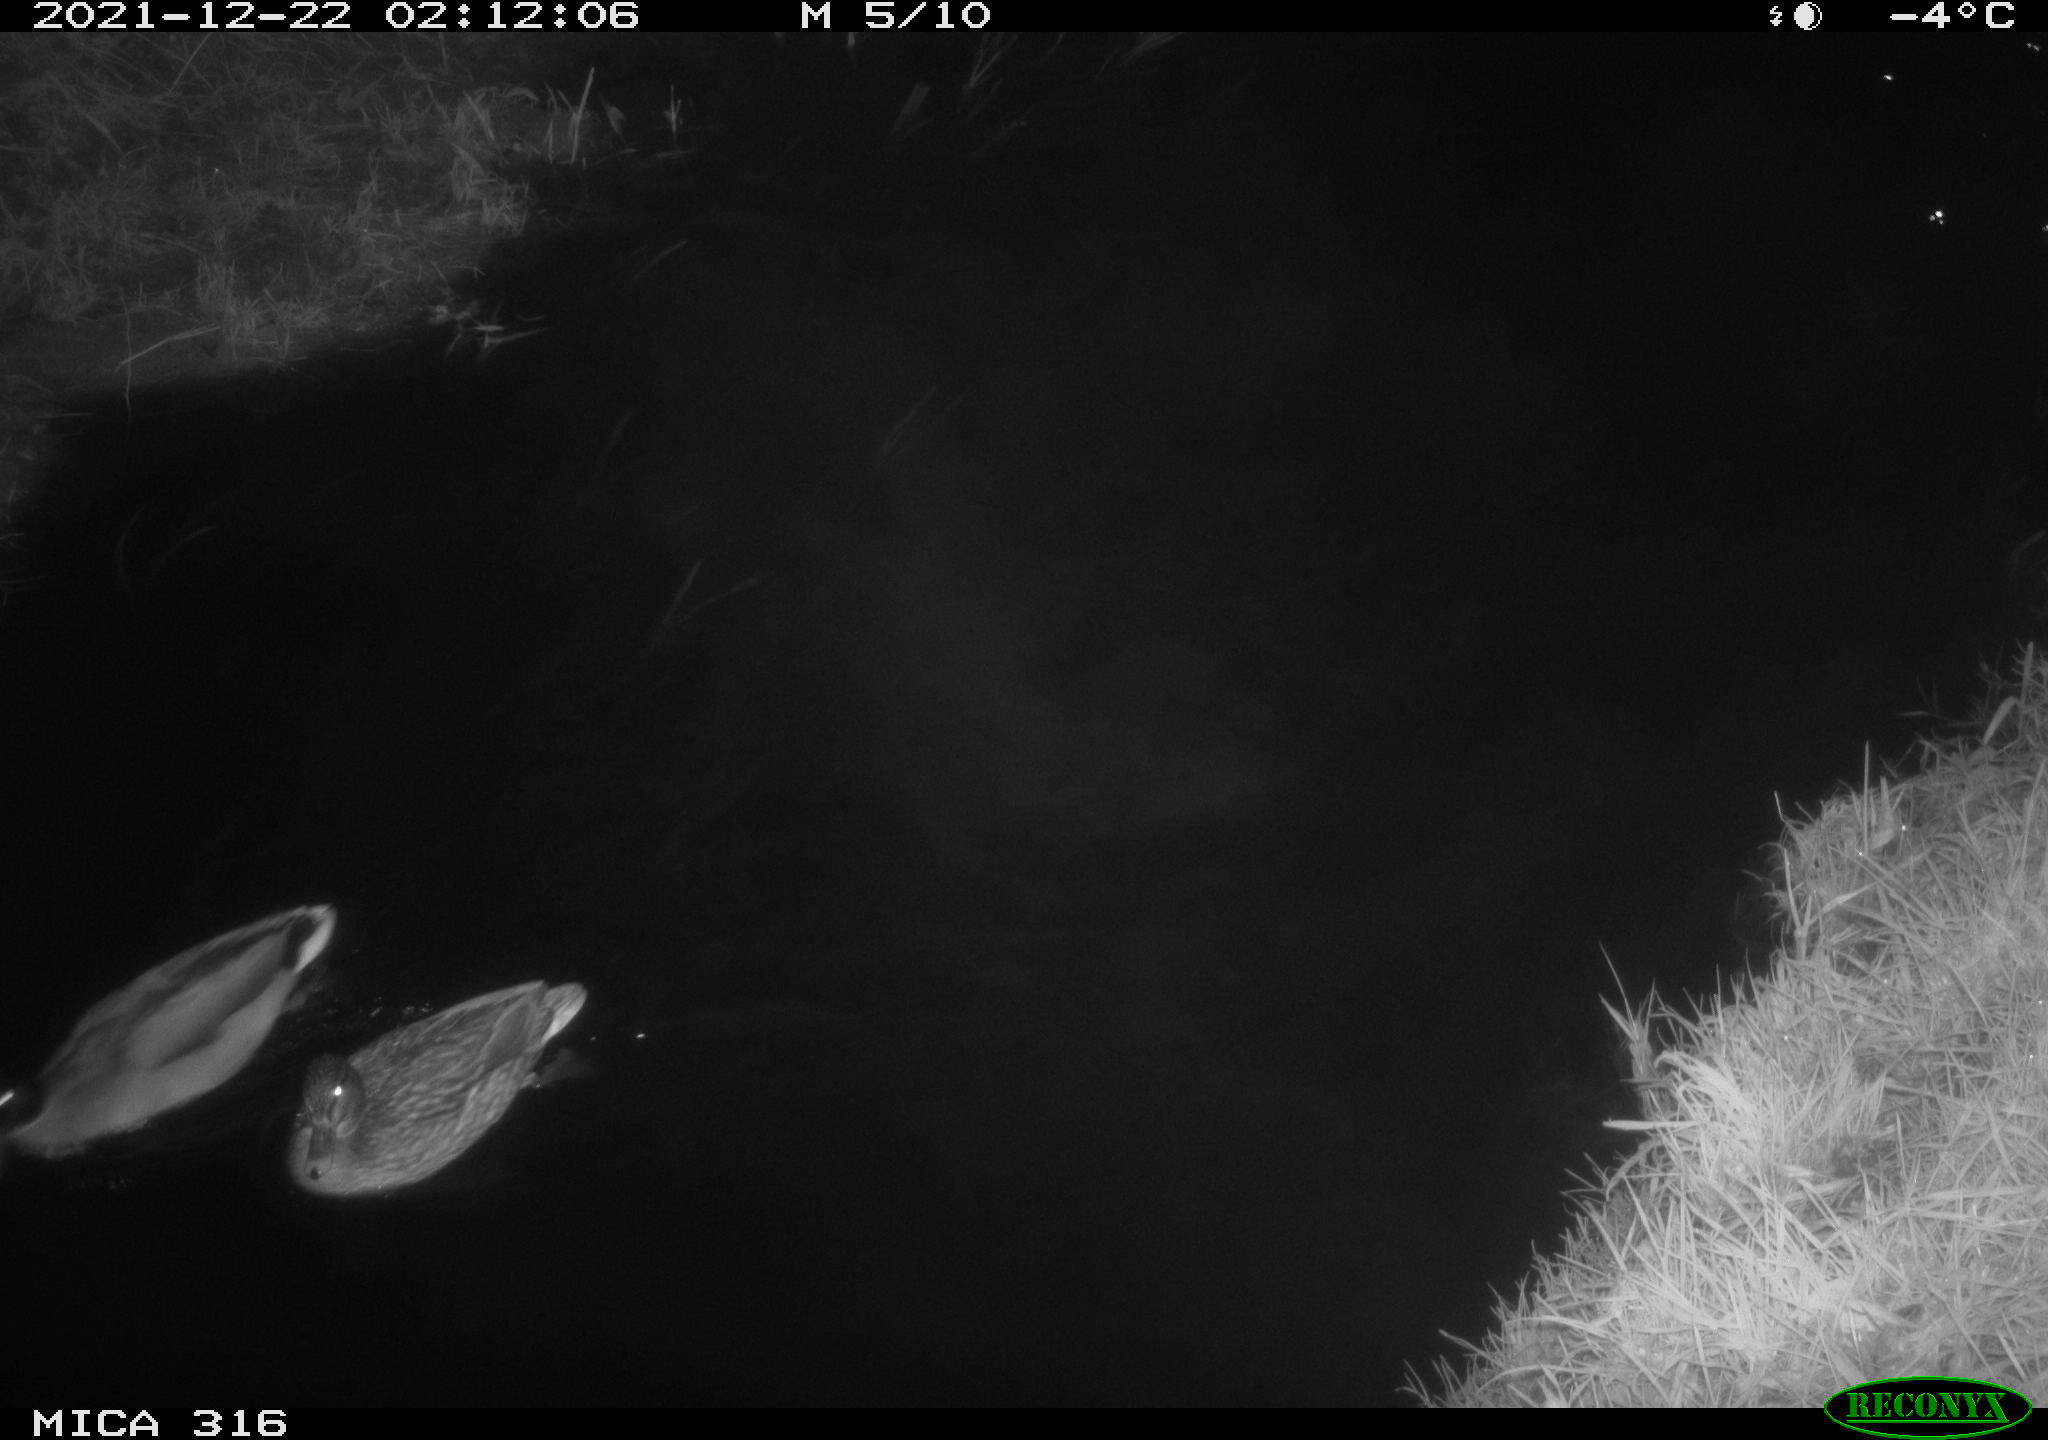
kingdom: Animalia
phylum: Chordata
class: Aves
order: Anseriformes
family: Anatidae
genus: Anas
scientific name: Anas
